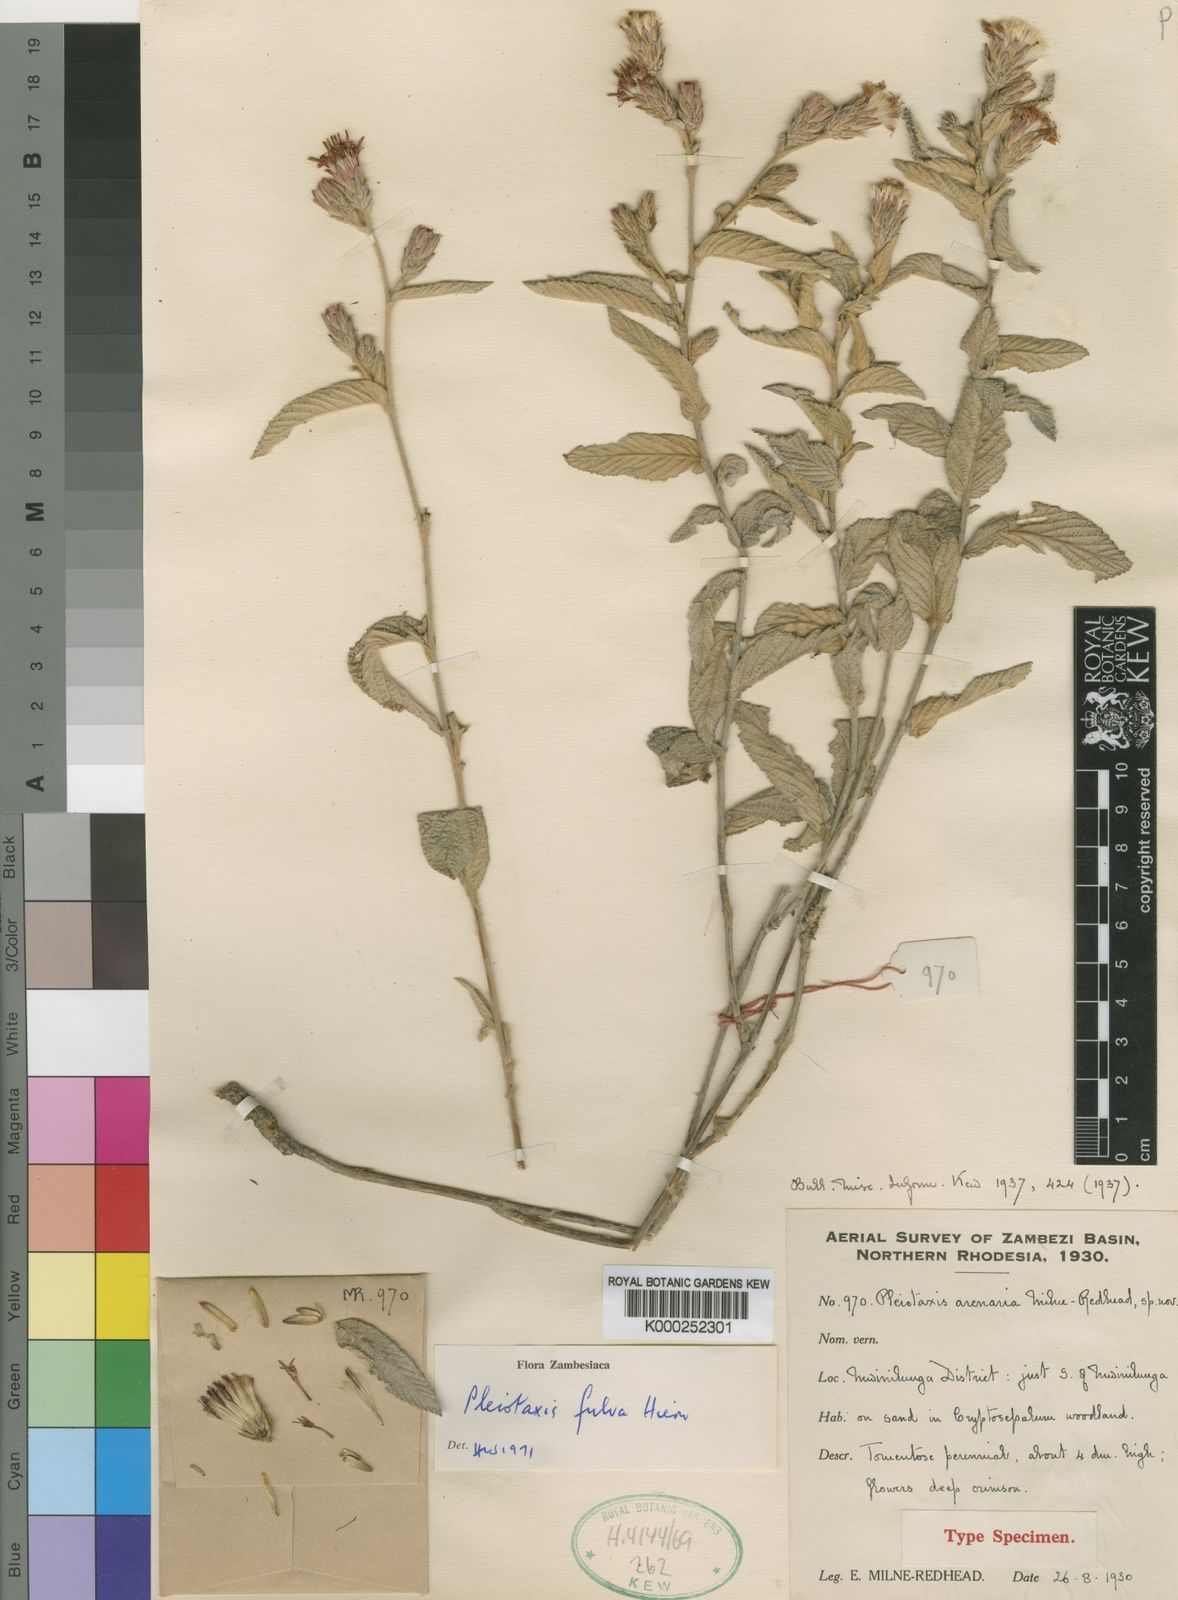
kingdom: Plantae
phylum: Tracheophyta
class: Magnoliopsida
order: Asterales
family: Asteraceae
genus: Pleiotaxis
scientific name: Pleiotaxis fulva
